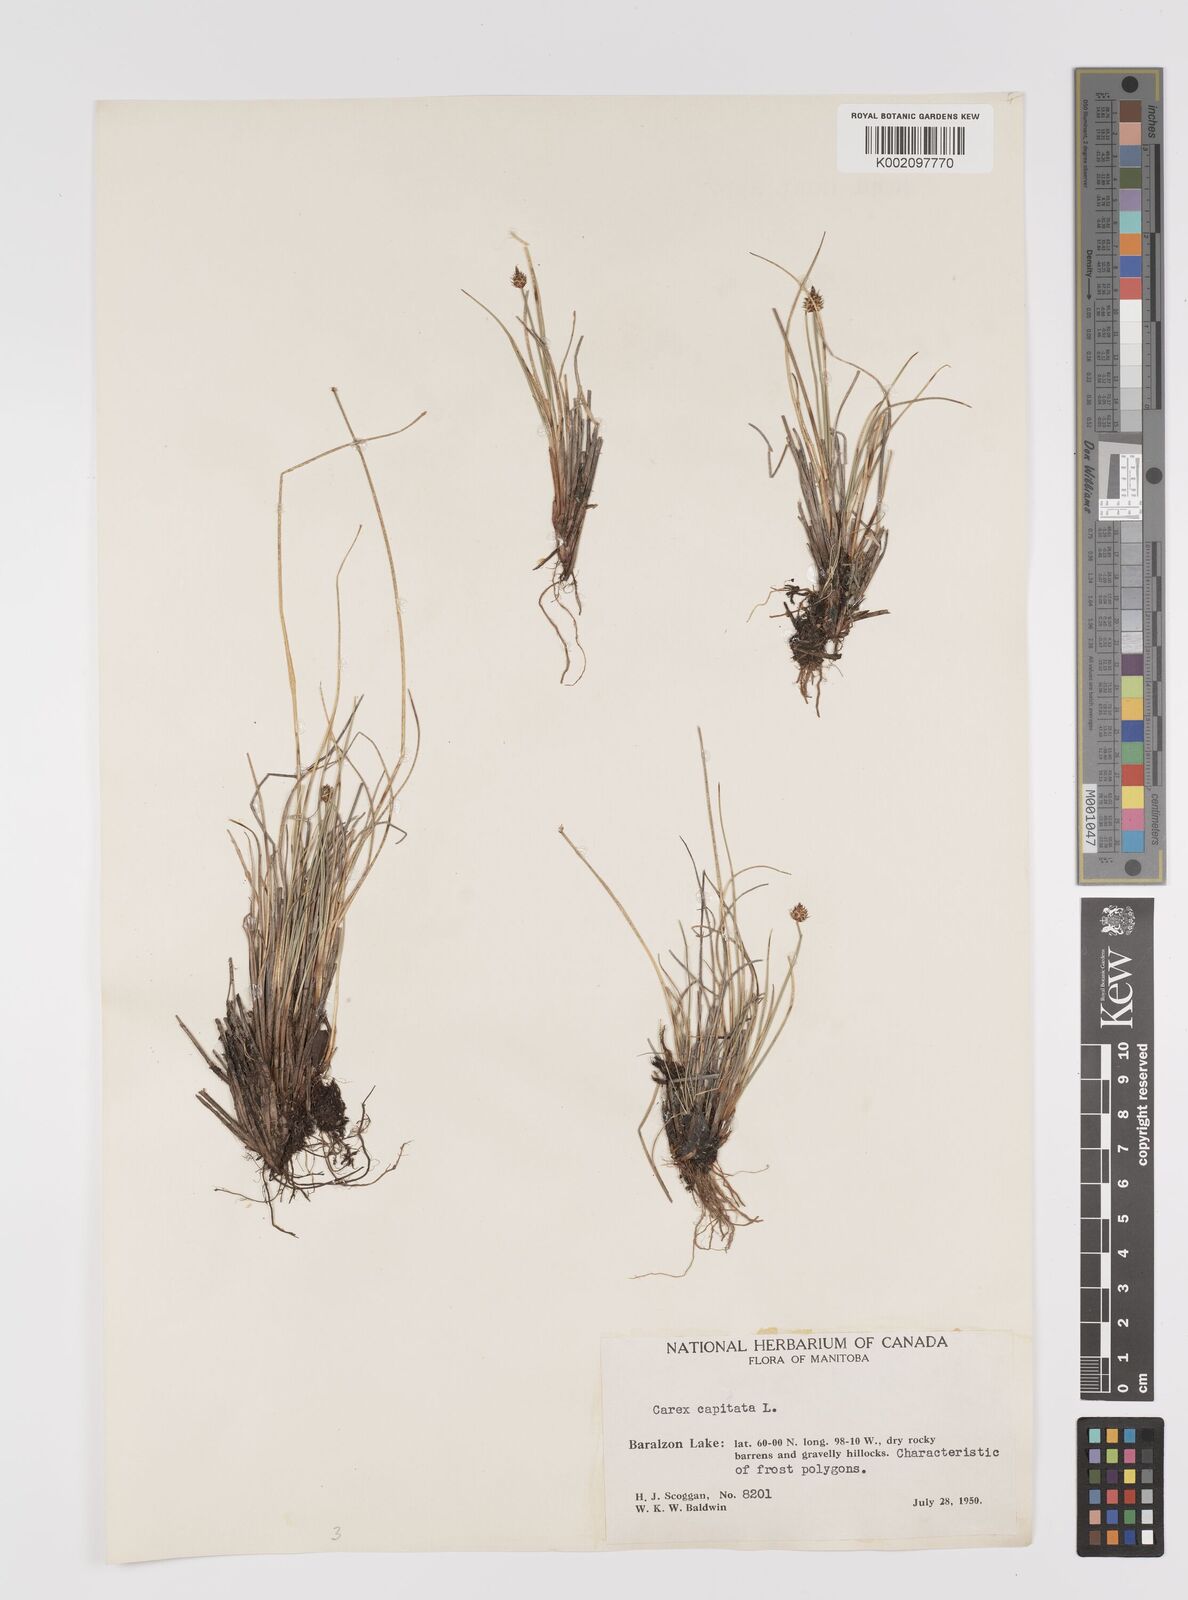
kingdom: Plantae
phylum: Tracheophyta
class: Liliopsida
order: Poales
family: Cyperaceae
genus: Carex
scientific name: Carex capitata
